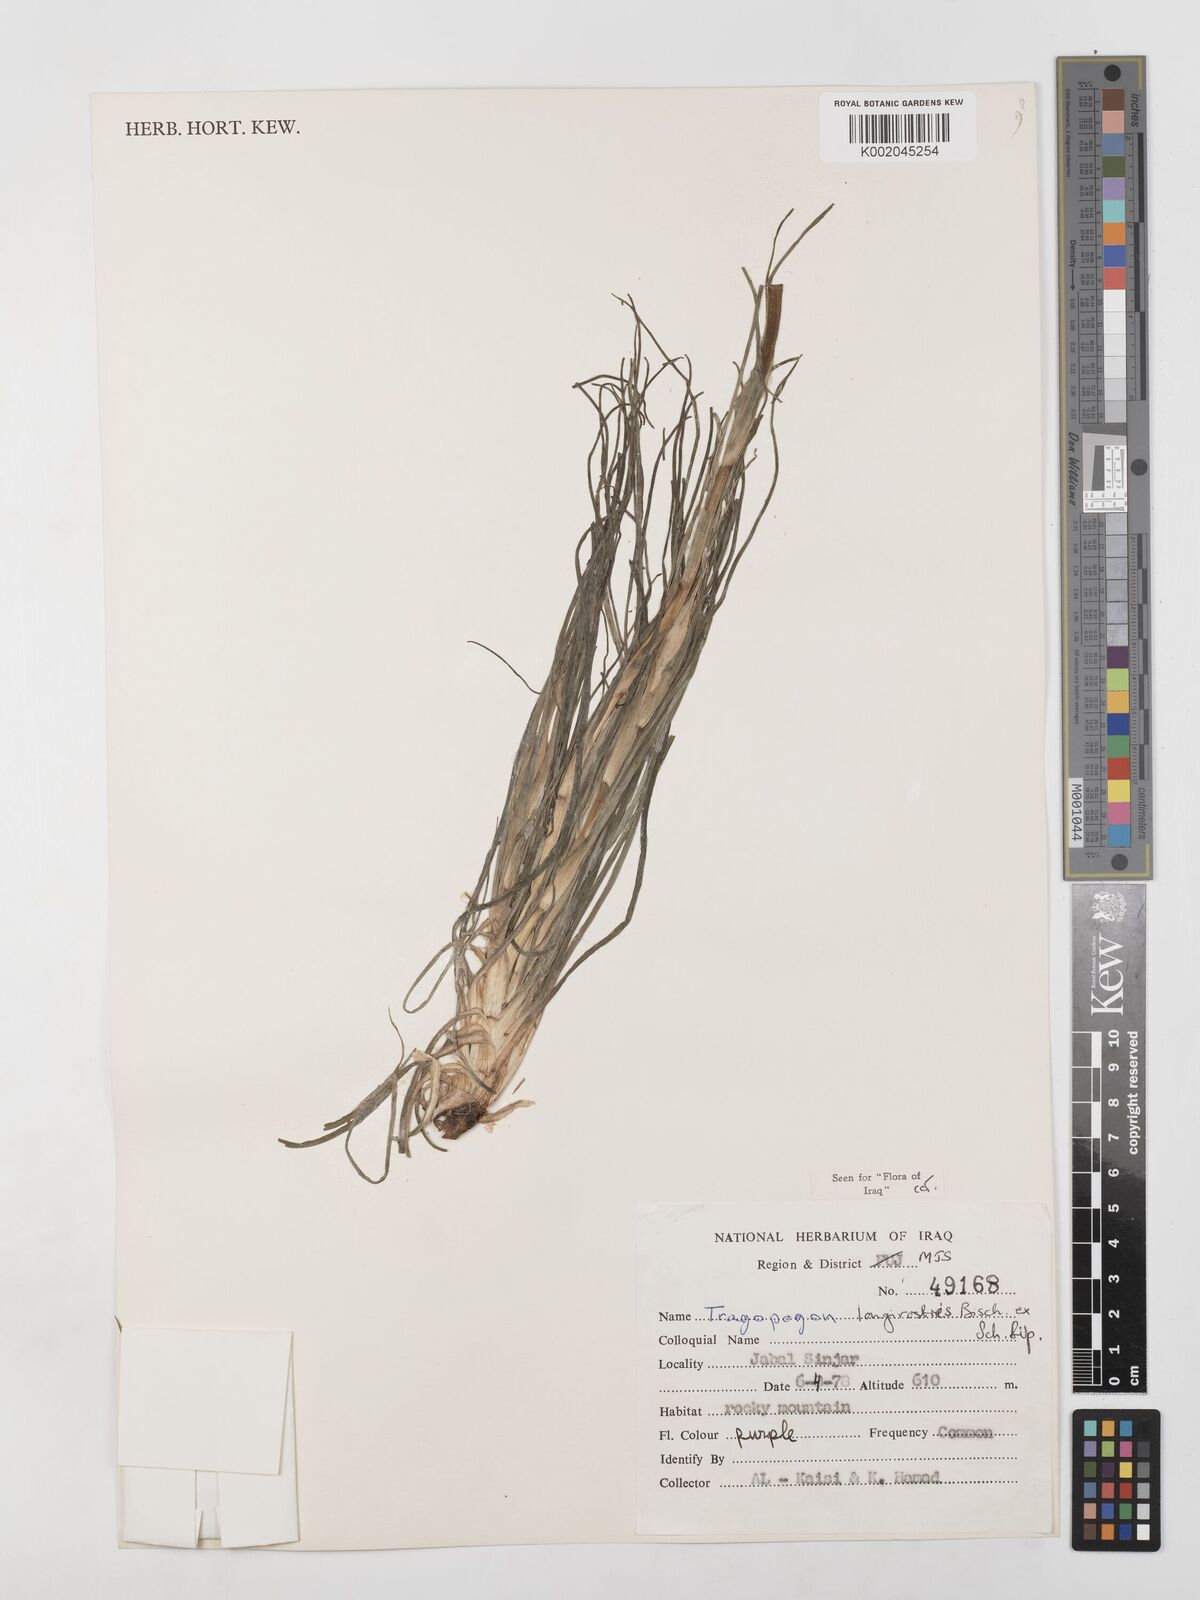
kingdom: Plantae
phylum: Tracheophyta
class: Magnoliopsida
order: Asterales
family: Asteraceae
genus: Tragopogon
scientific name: Tragopogon coelesyriacus
